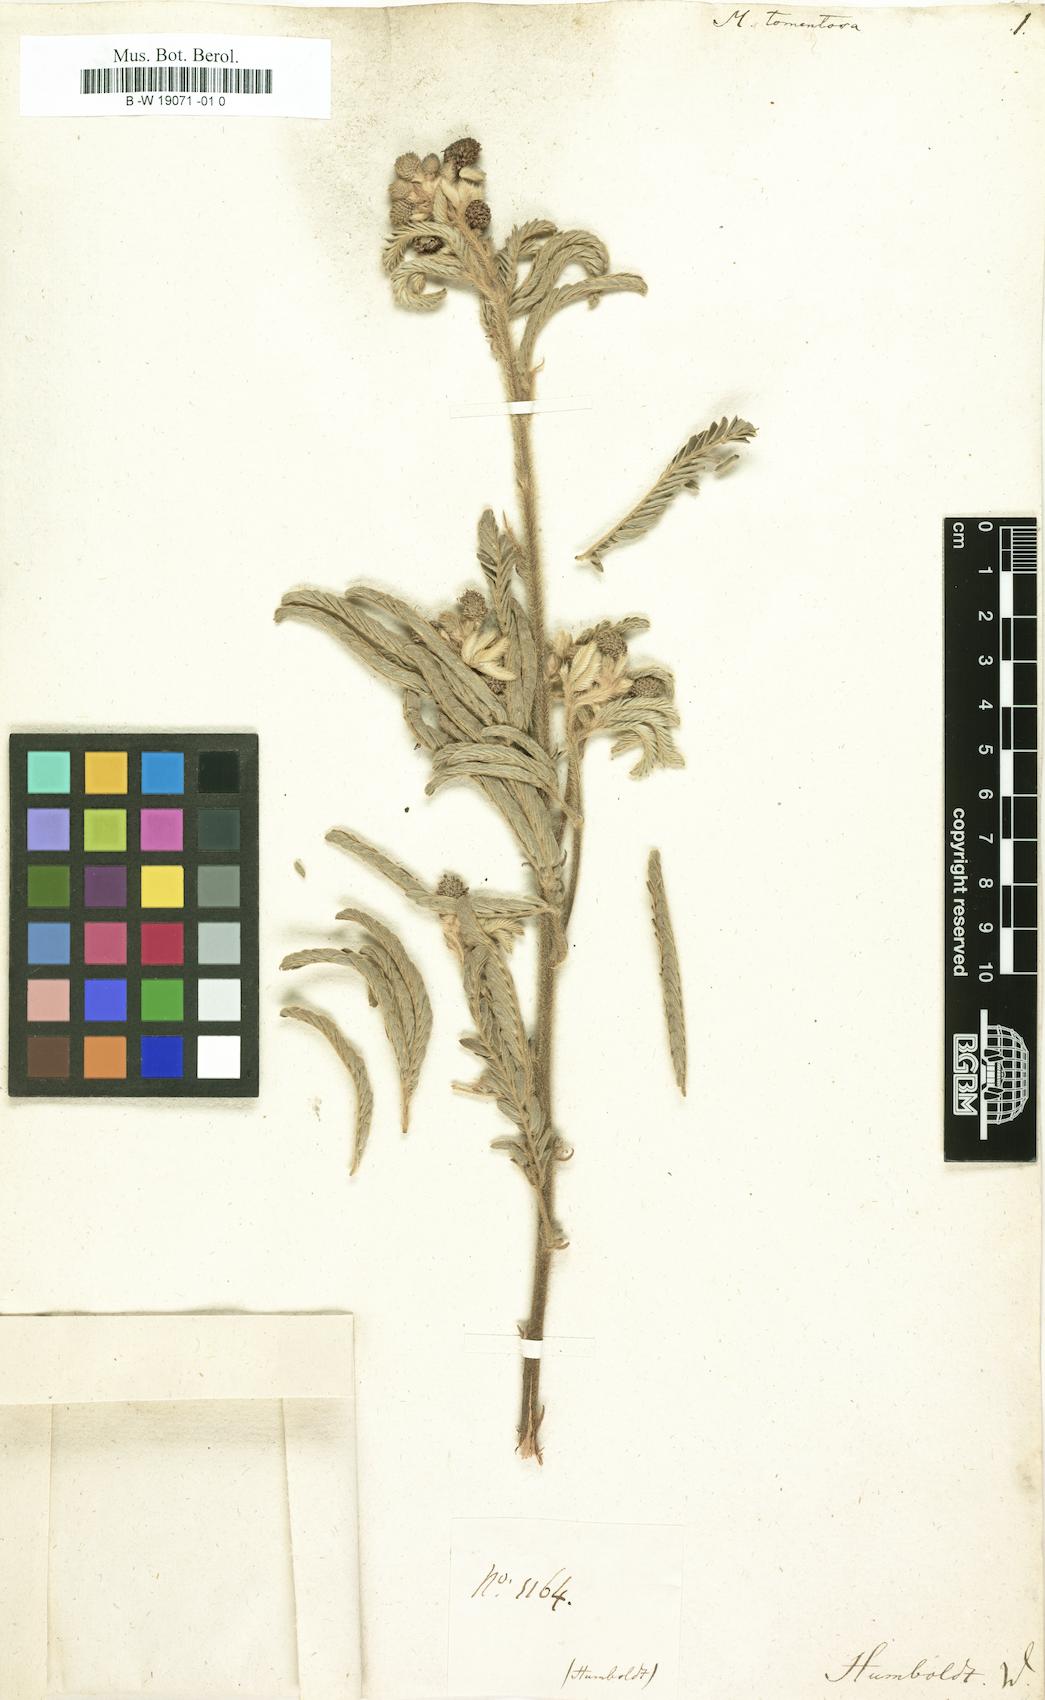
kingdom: Plantae
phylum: Tracheophyta
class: Magnoliopsida
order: Fabales
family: Fabaceae
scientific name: Fabaceae
